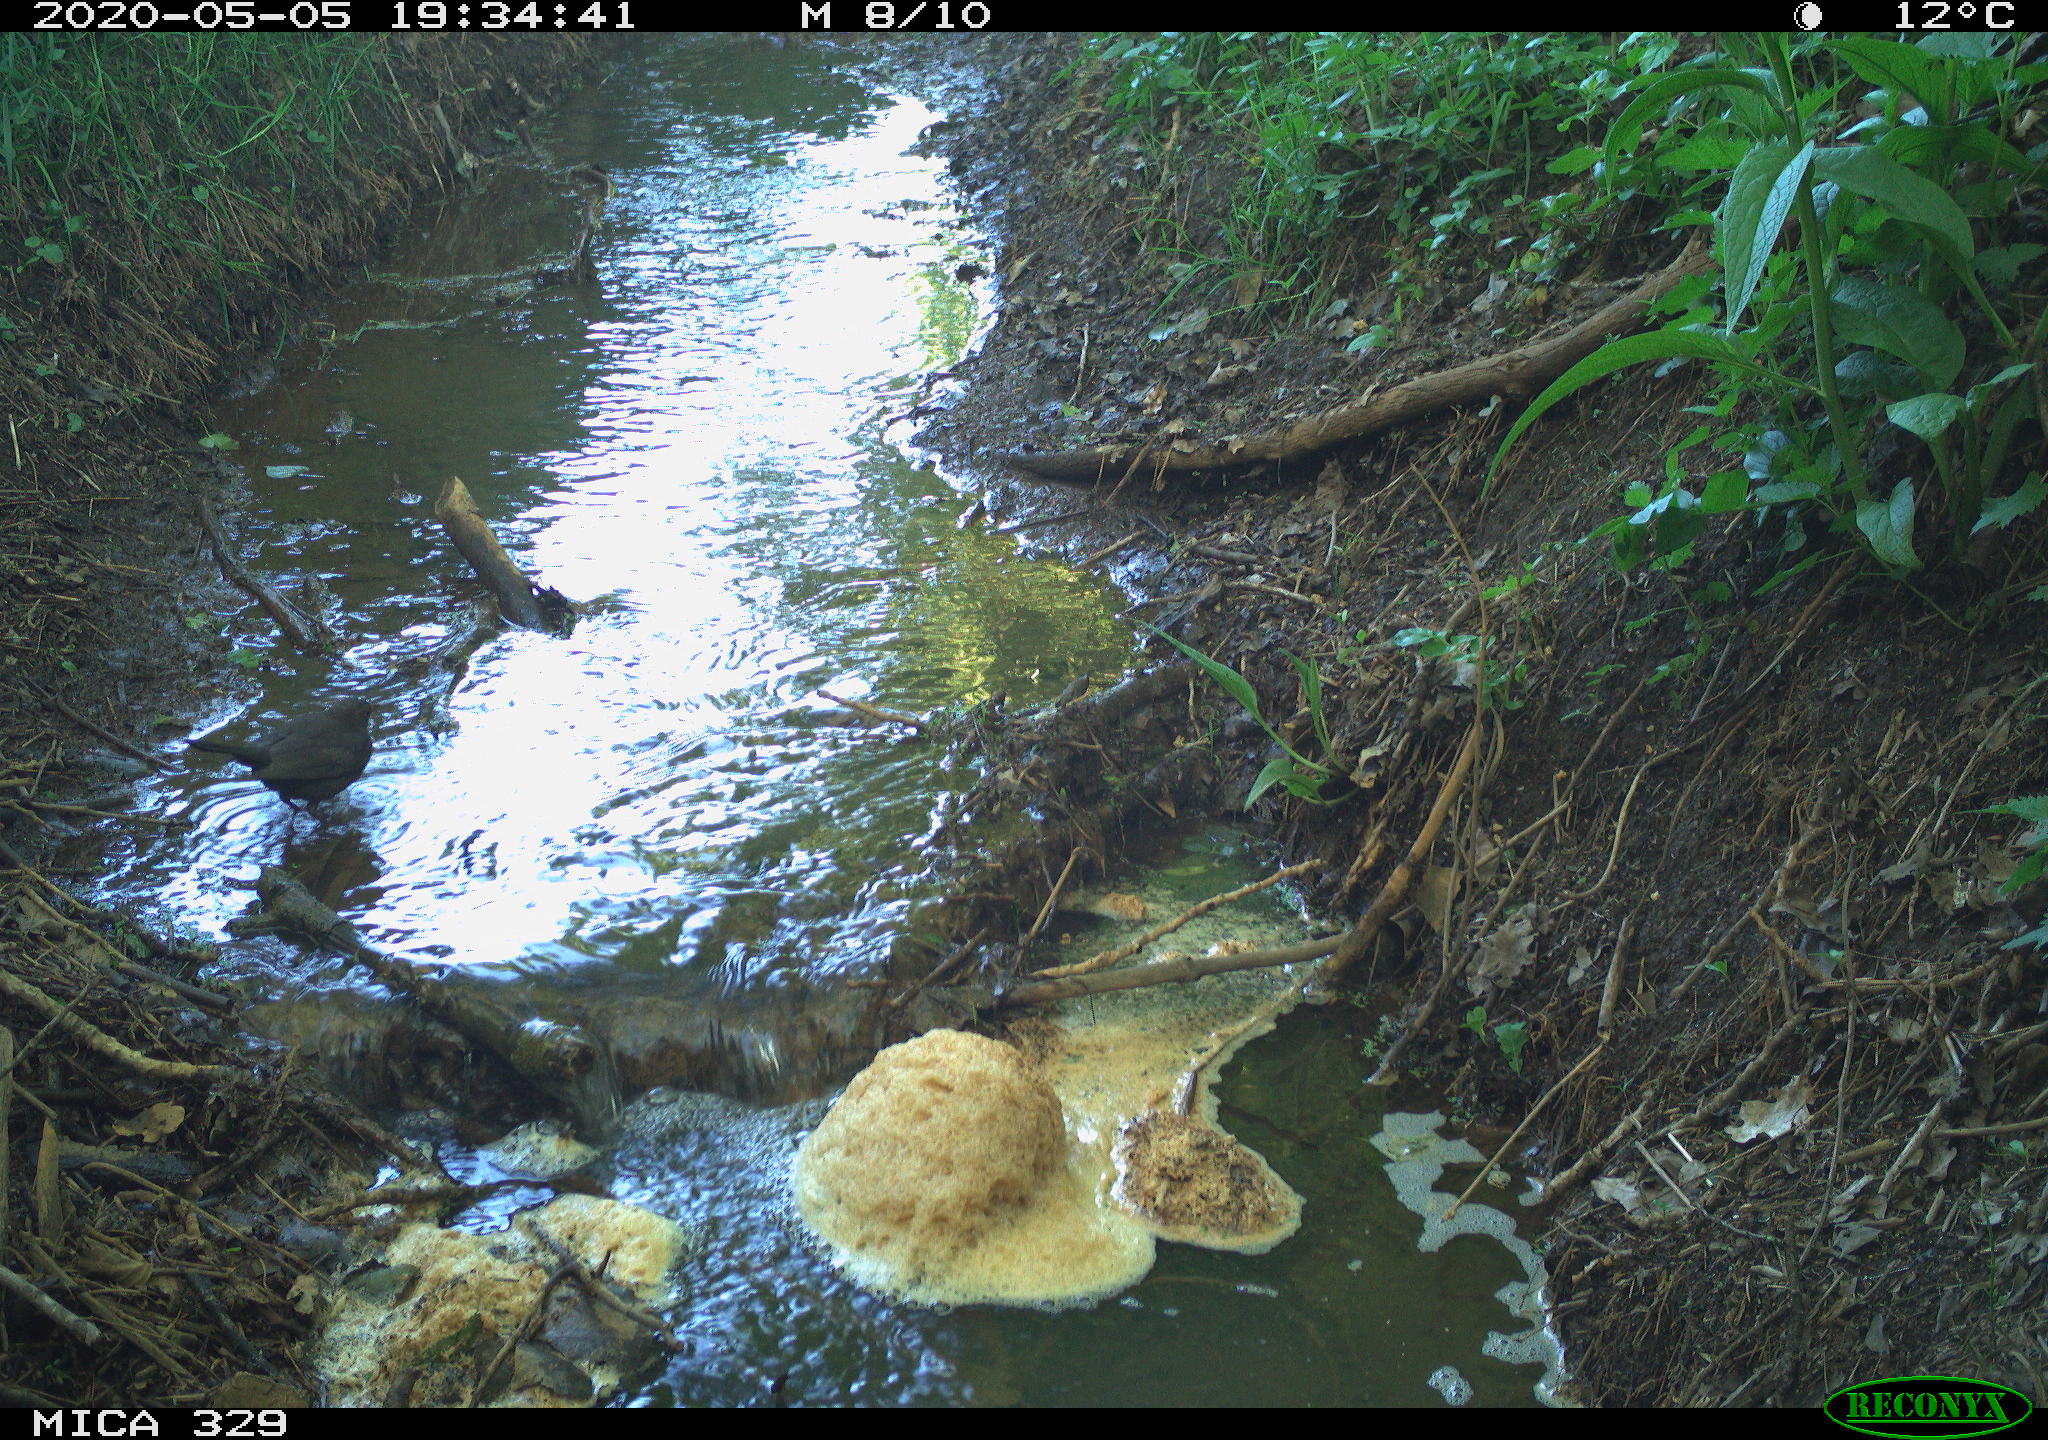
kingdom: Animalia
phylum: Chordata
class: Aves
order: Passeriformes
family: Turdidae
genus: Turdus
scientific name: Turdus merula
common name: Common blackbird
